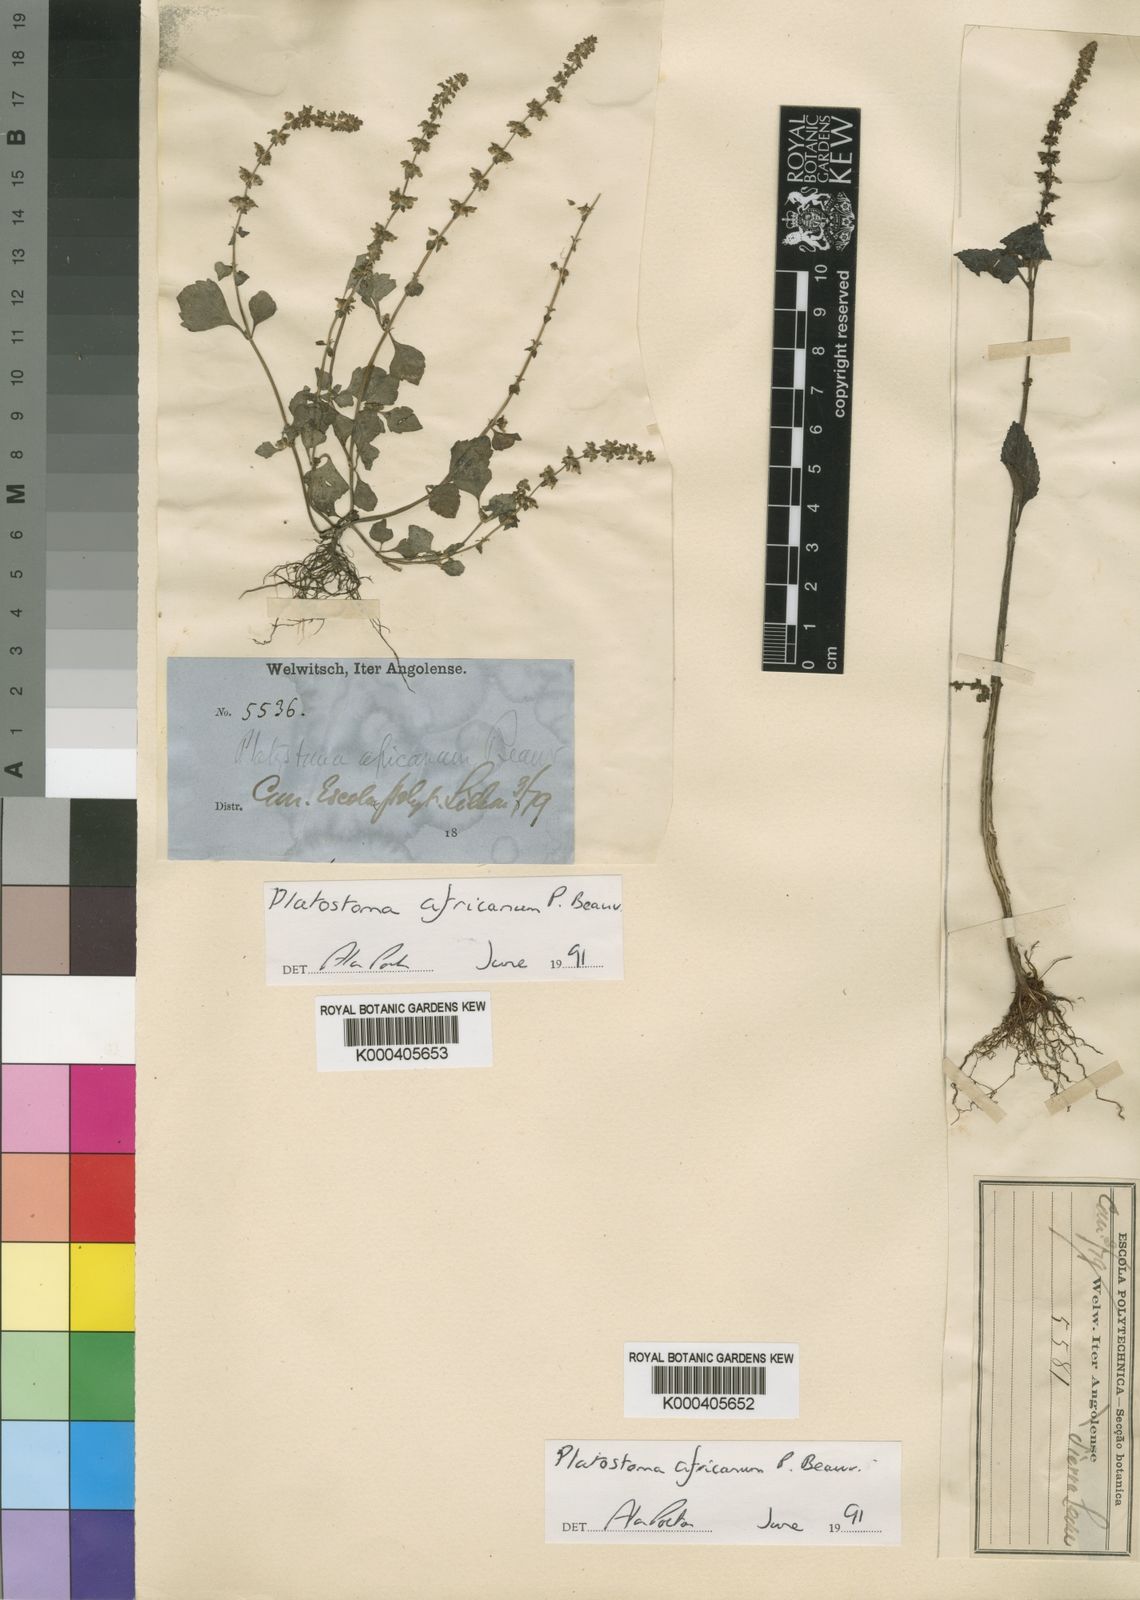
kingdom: Plantae
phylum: Tracheophyta
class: Magnoliopsida
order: Lamiales
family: Lamiaceae
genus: Platostoma
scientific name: Platostoma africanum
